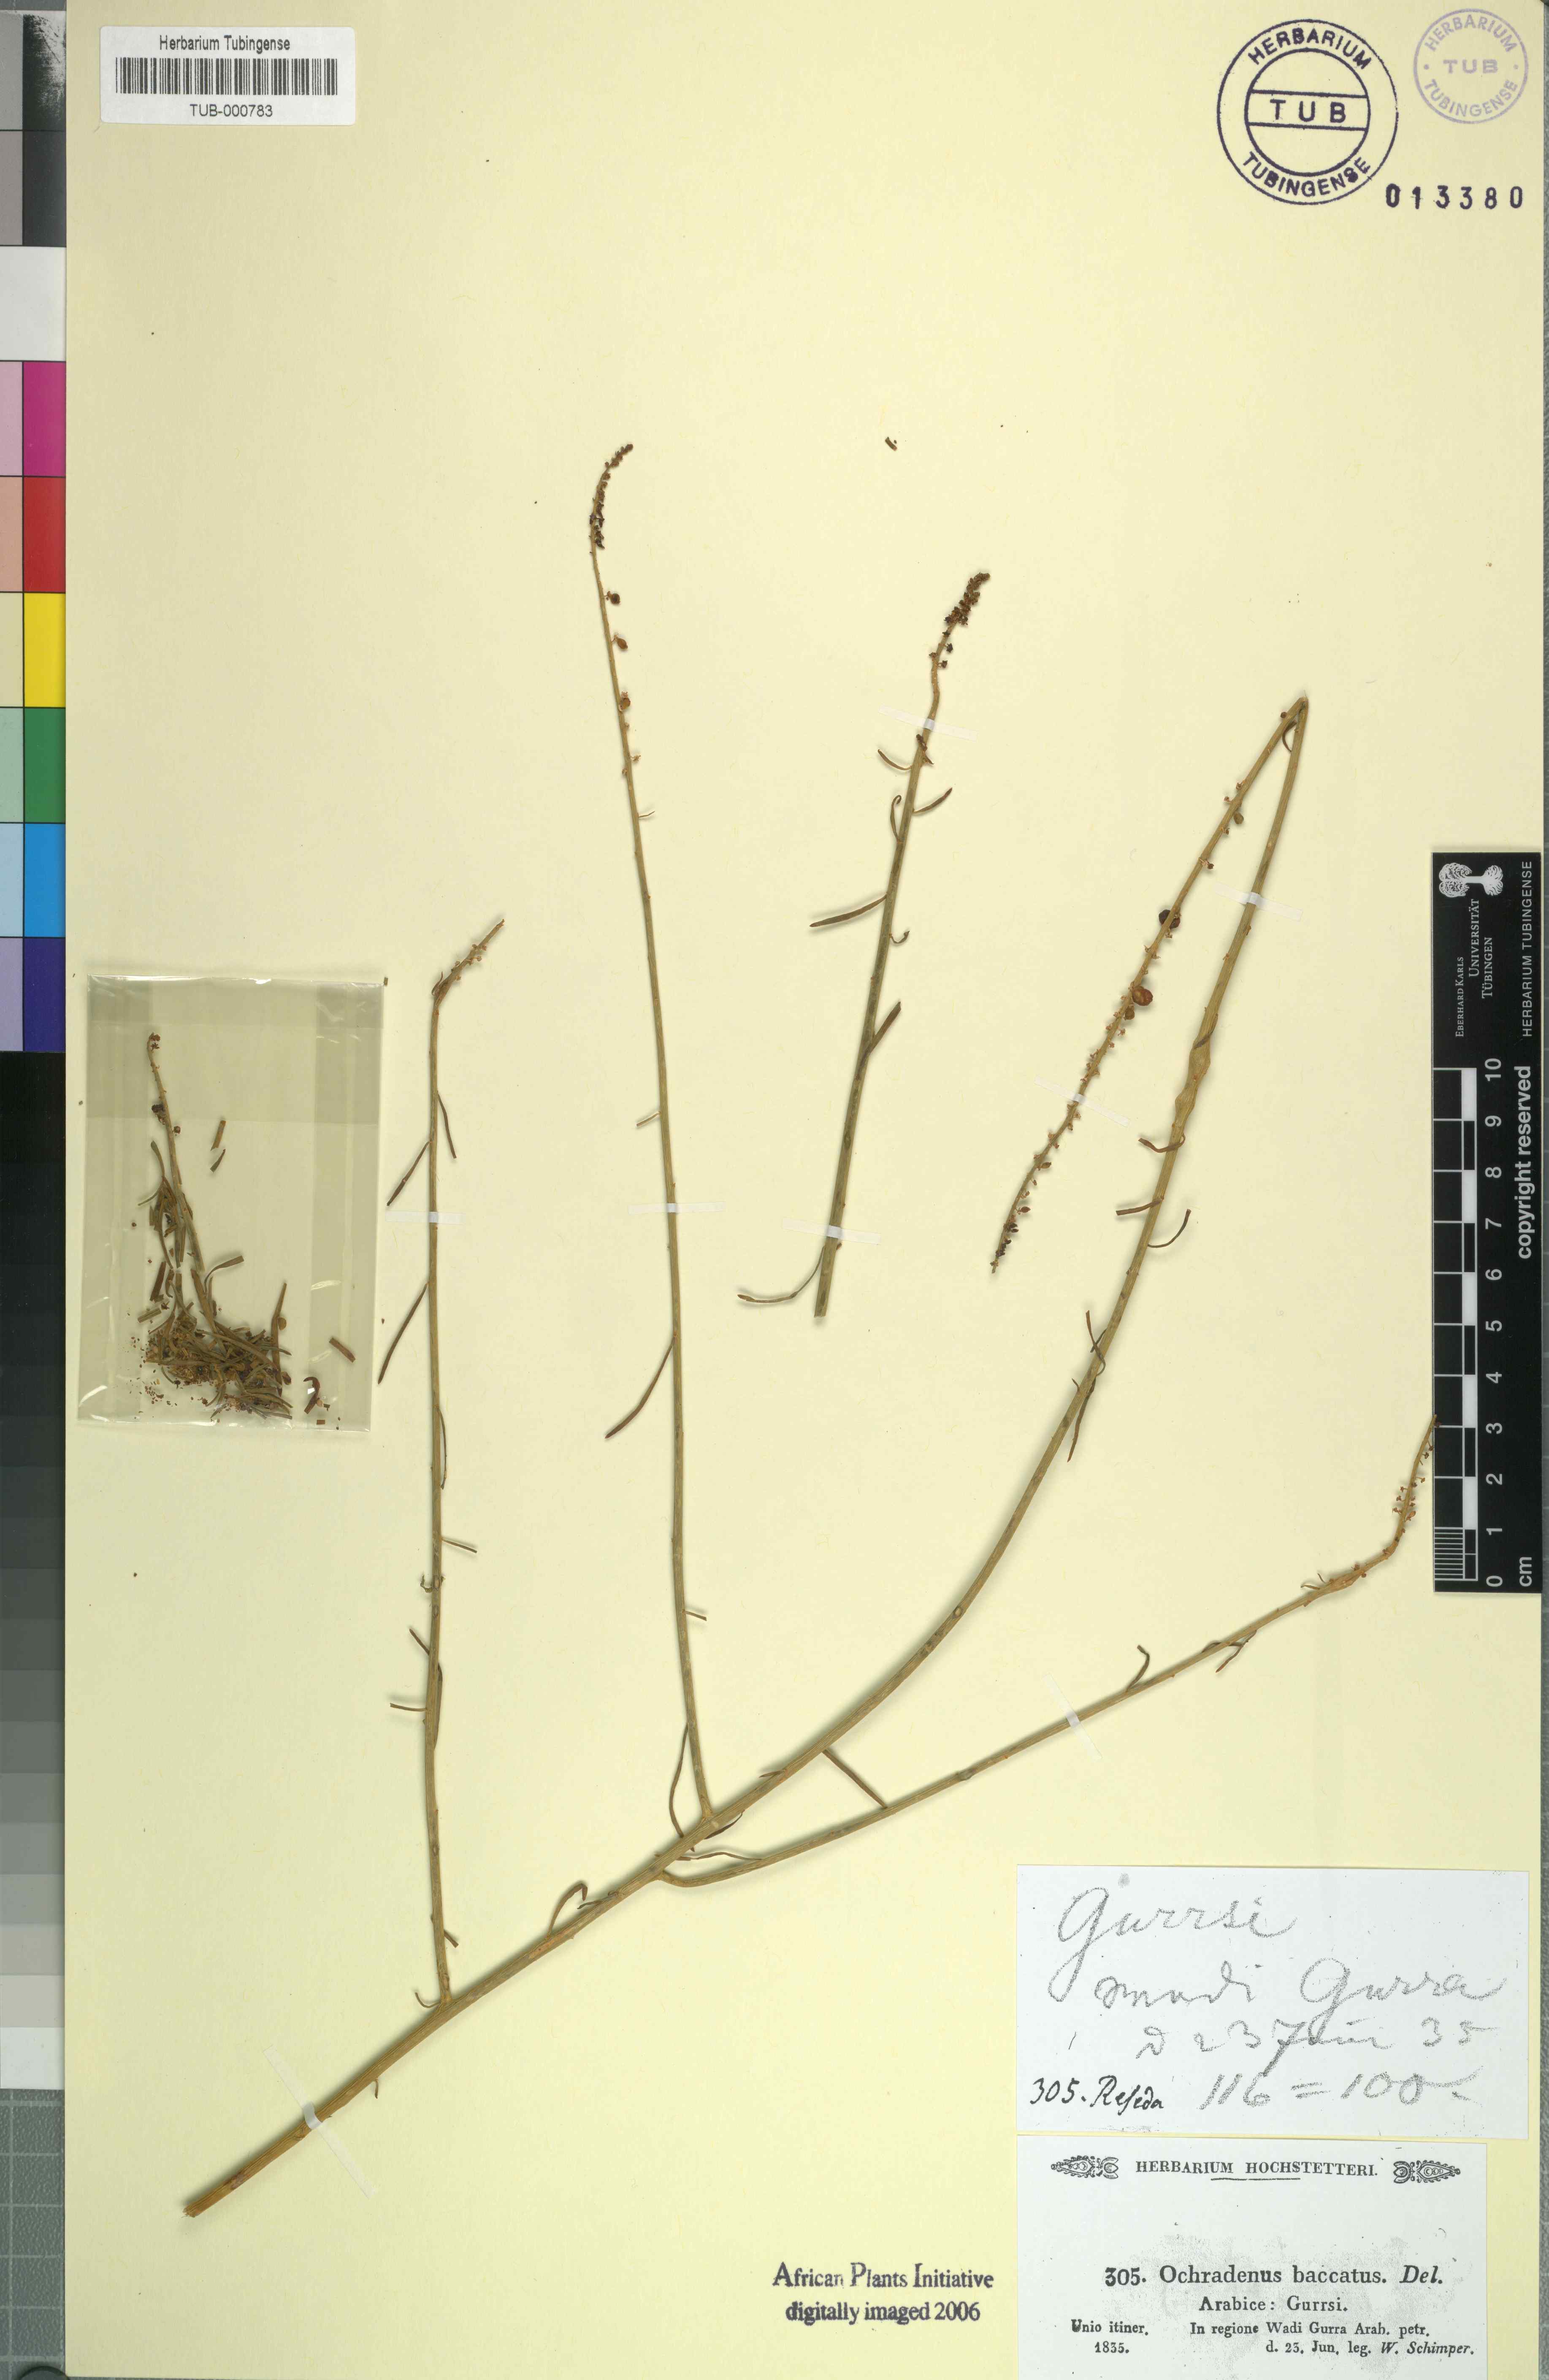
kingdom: Plantae
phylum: Tracheophyta
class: Magnoliopsida
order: Brassicales
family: Resedaceae
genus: Ochradenus
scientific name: Ochradenus baccatus
